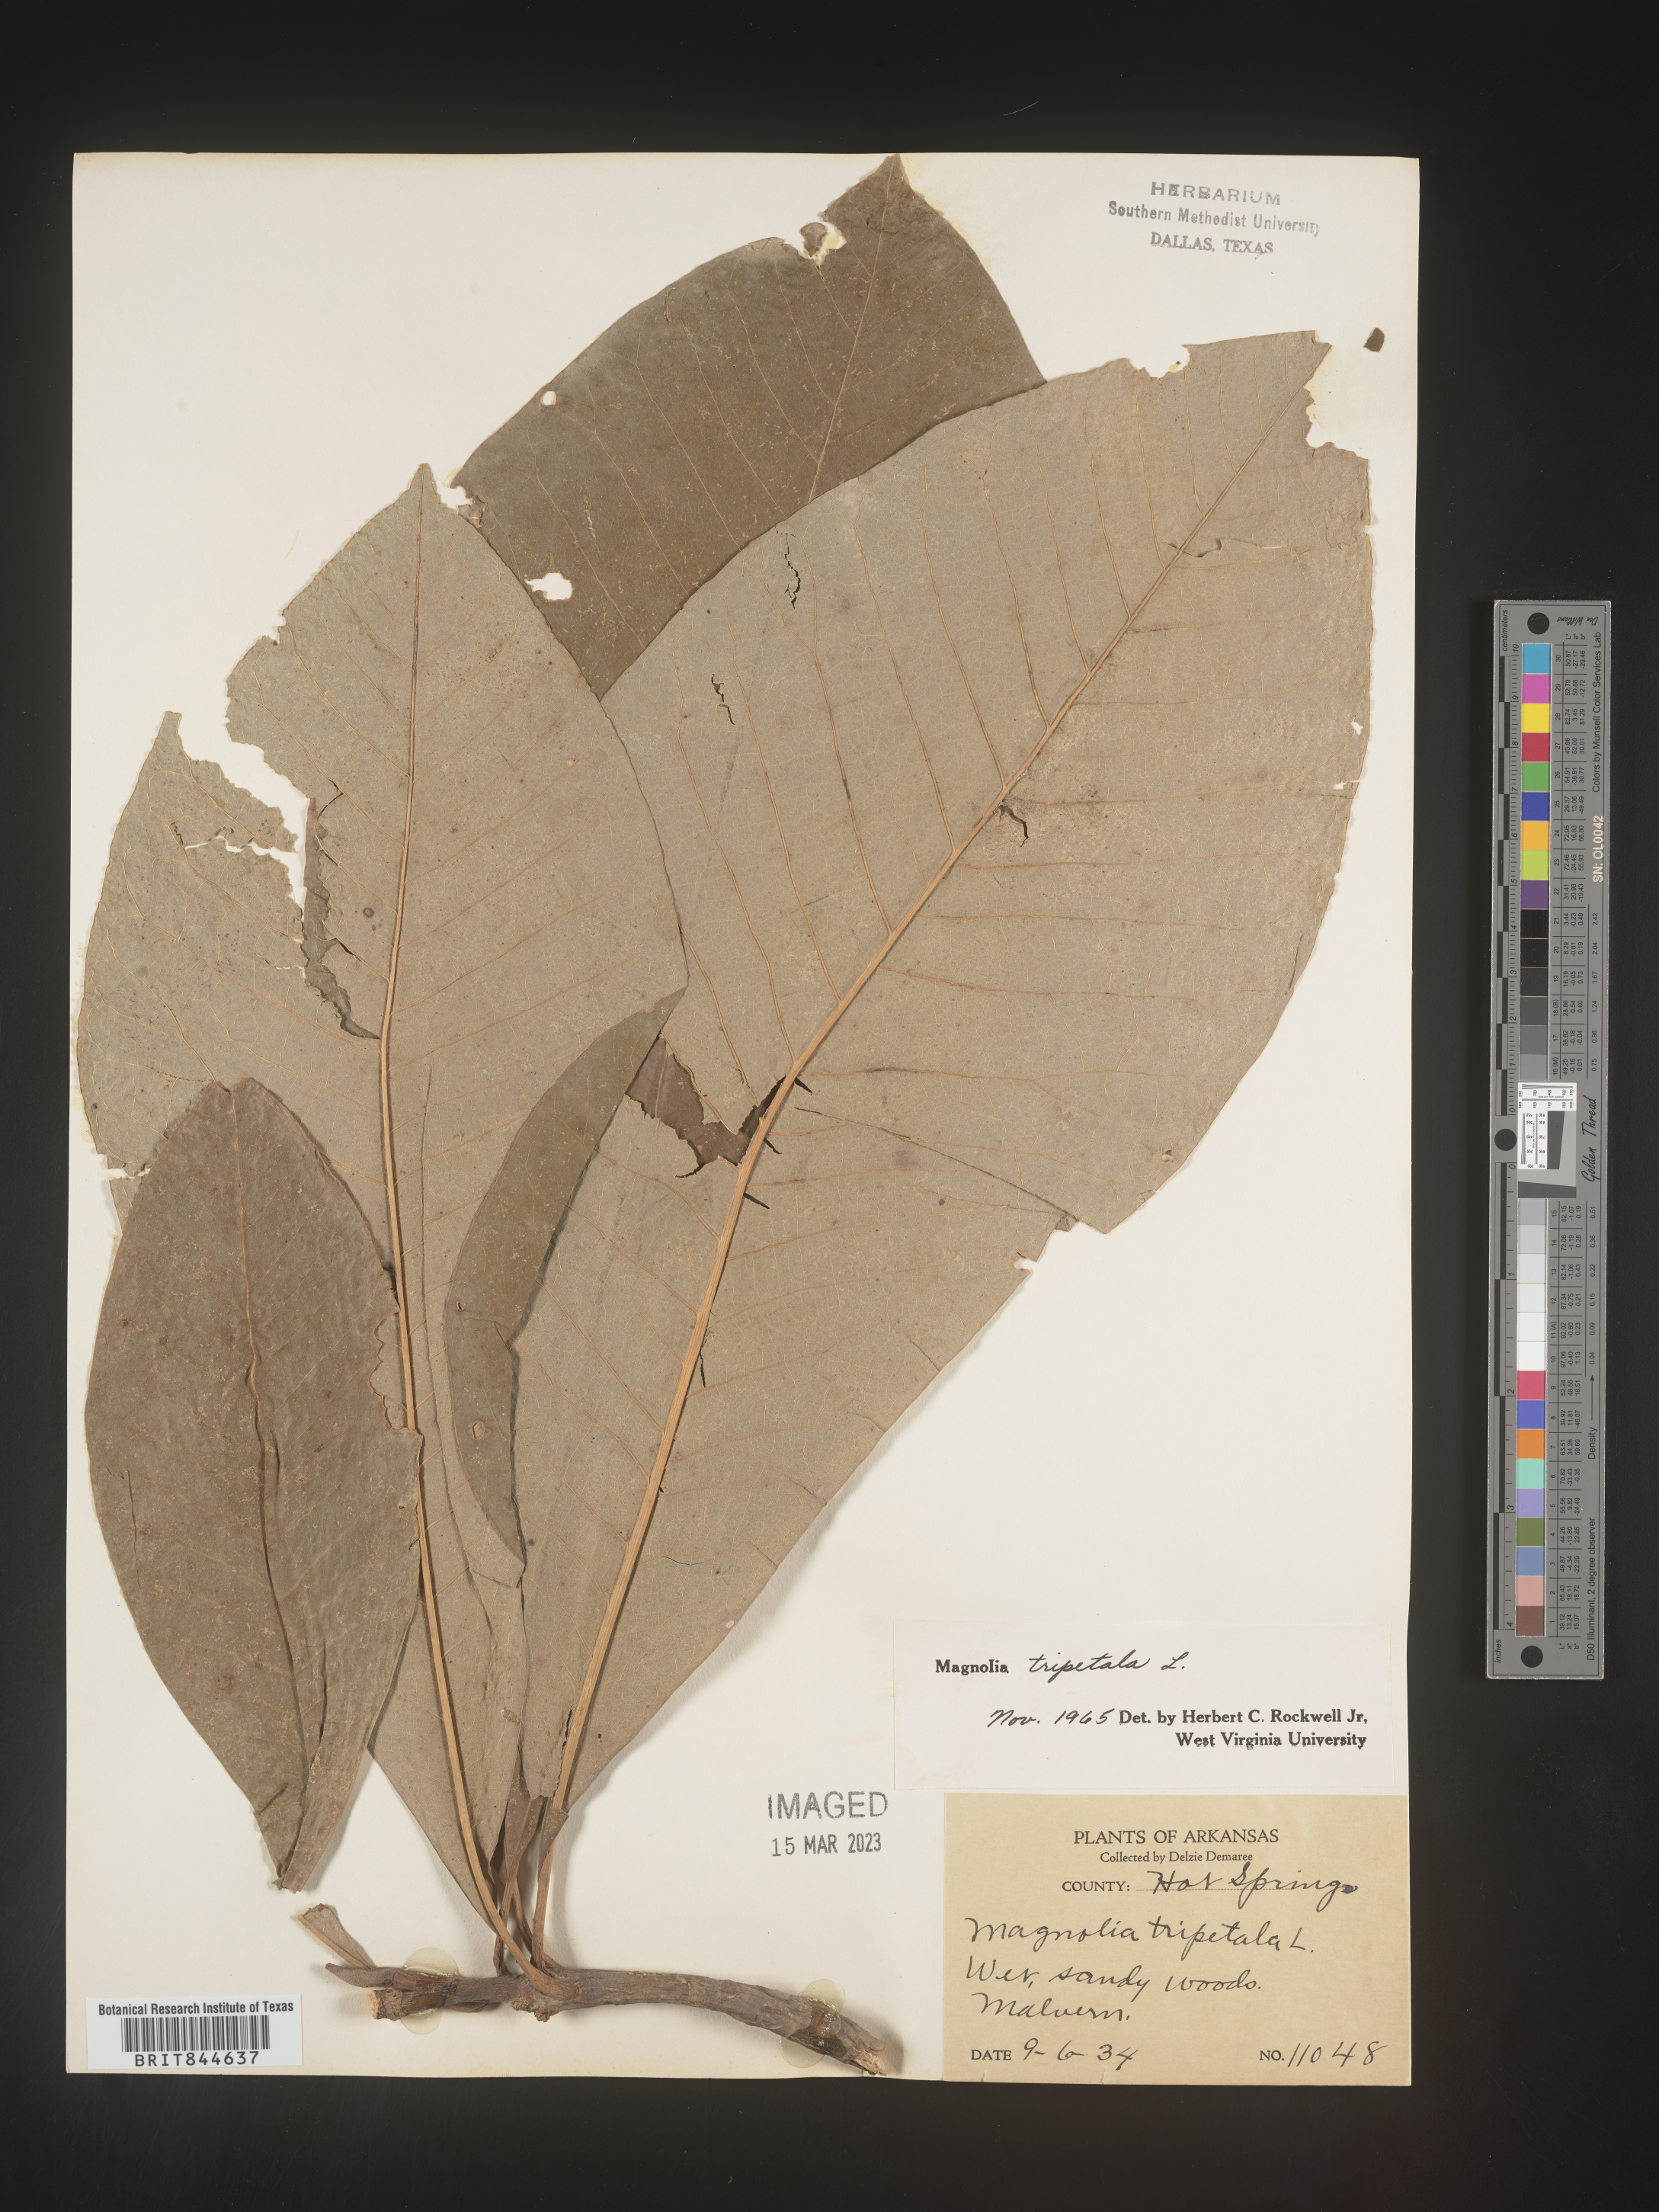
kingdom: Plantae
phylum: Tracheophyta
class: Magnoliopsida
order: Magnoliales
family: Magnoliaceae
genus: Magnolia
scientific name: Magnolia tripetala
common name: Umbrella magnolia
